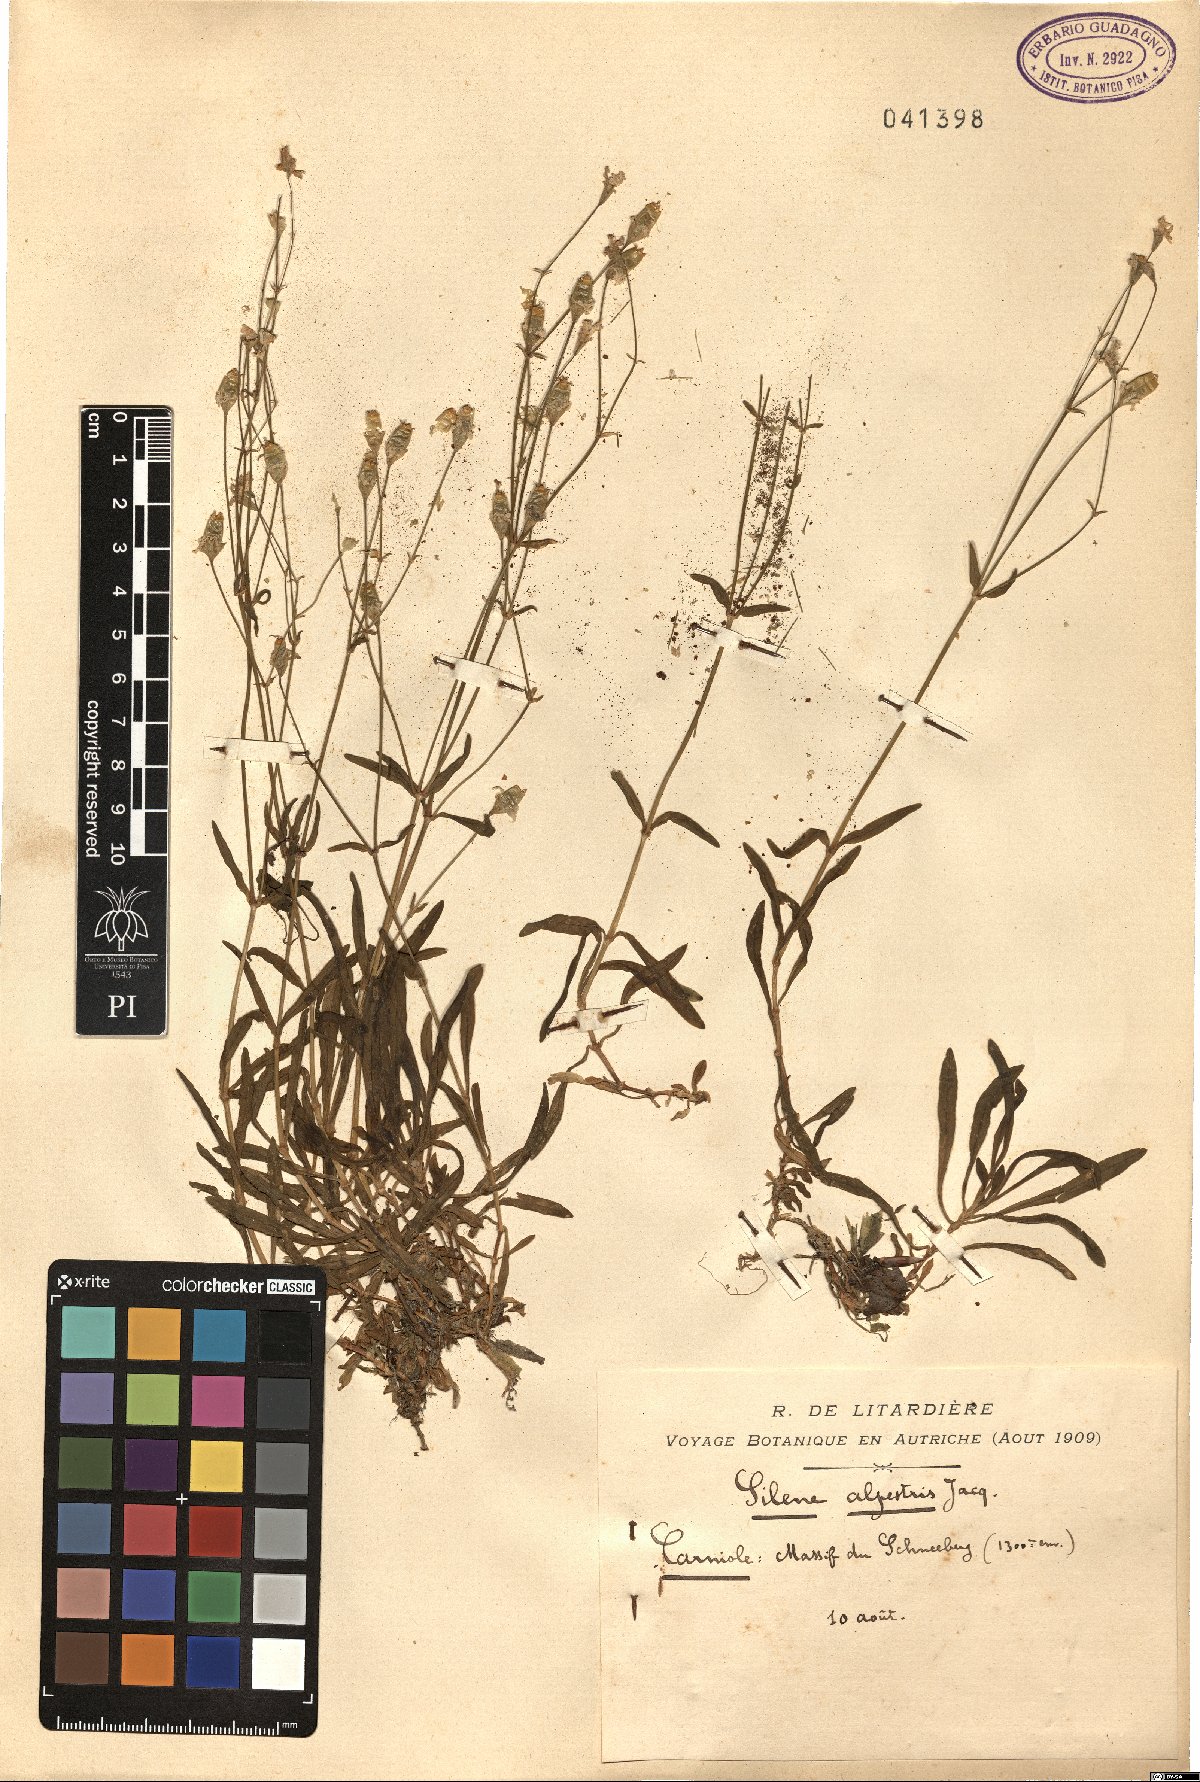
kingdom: Plantae
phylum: Tracheophyta
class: Magnoliopsida
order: Caryophyllales
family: Caryophyllaceae
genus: Heliosperma
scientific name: Heliosperma alpestre
